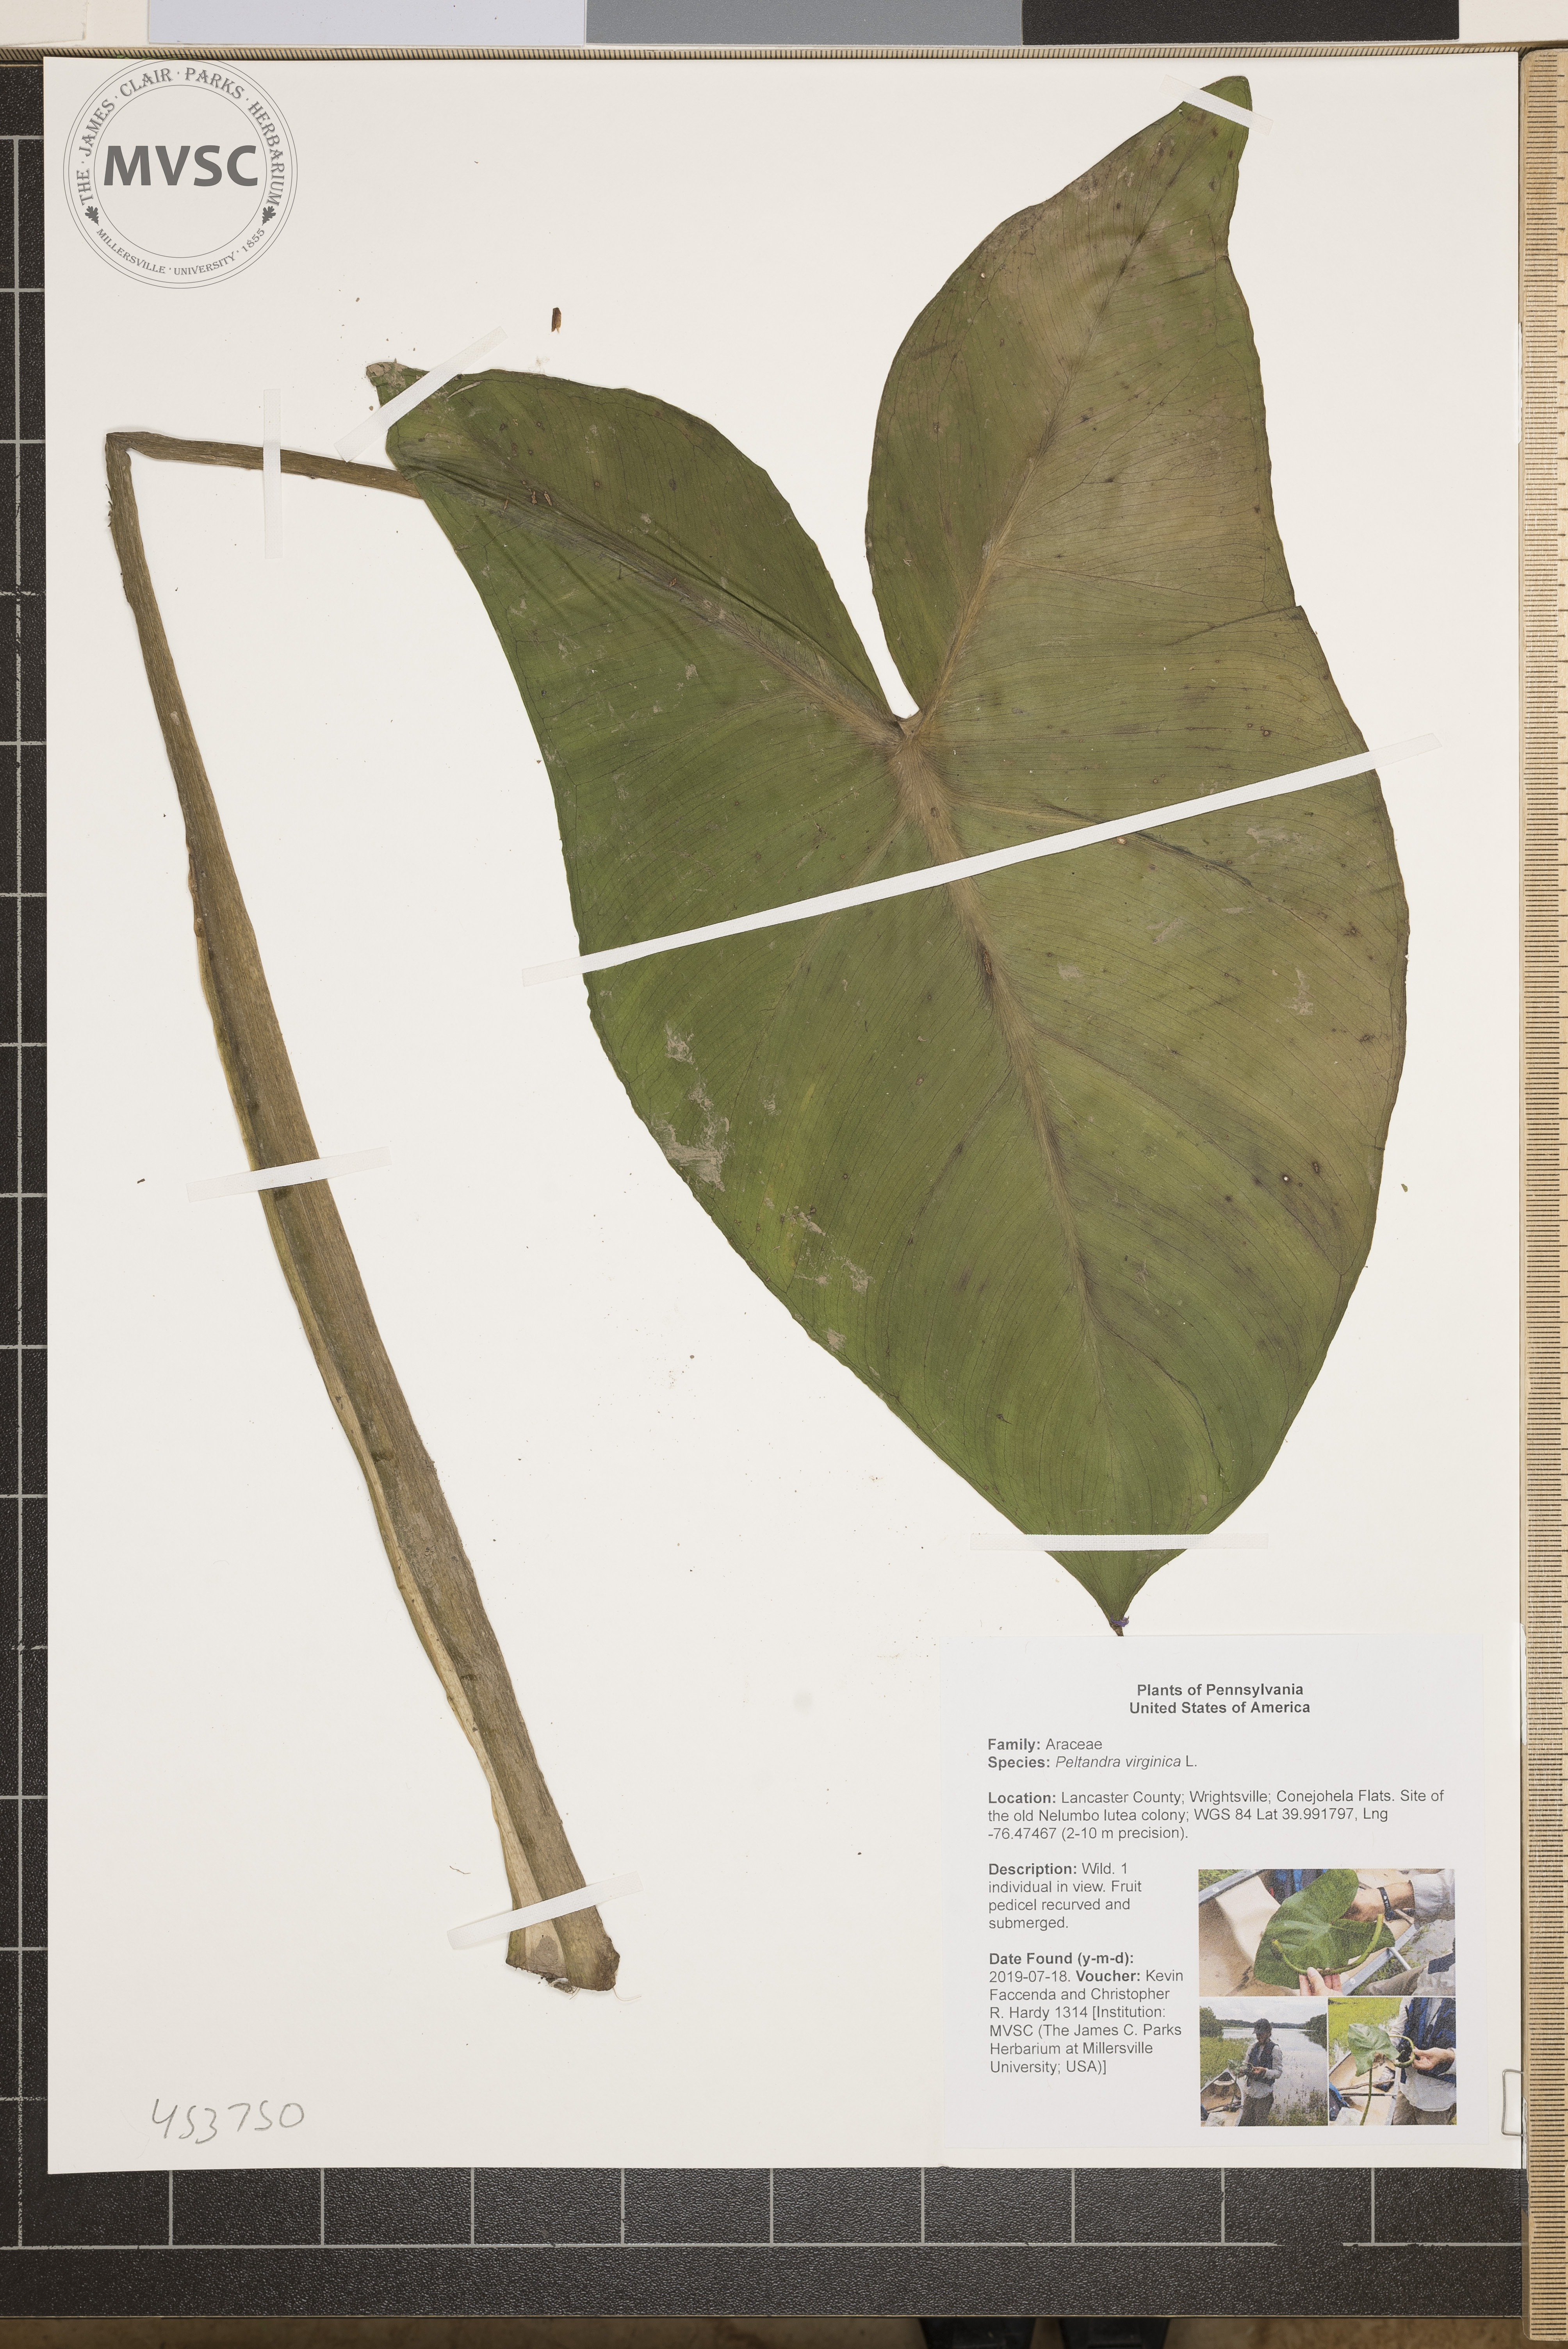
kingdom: Plantae
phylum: Tracheophyta
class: Liliopsida
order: Alismatales
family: Araceae
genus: Peltandra
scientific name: Peltandra virginica
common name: Arrow arum
